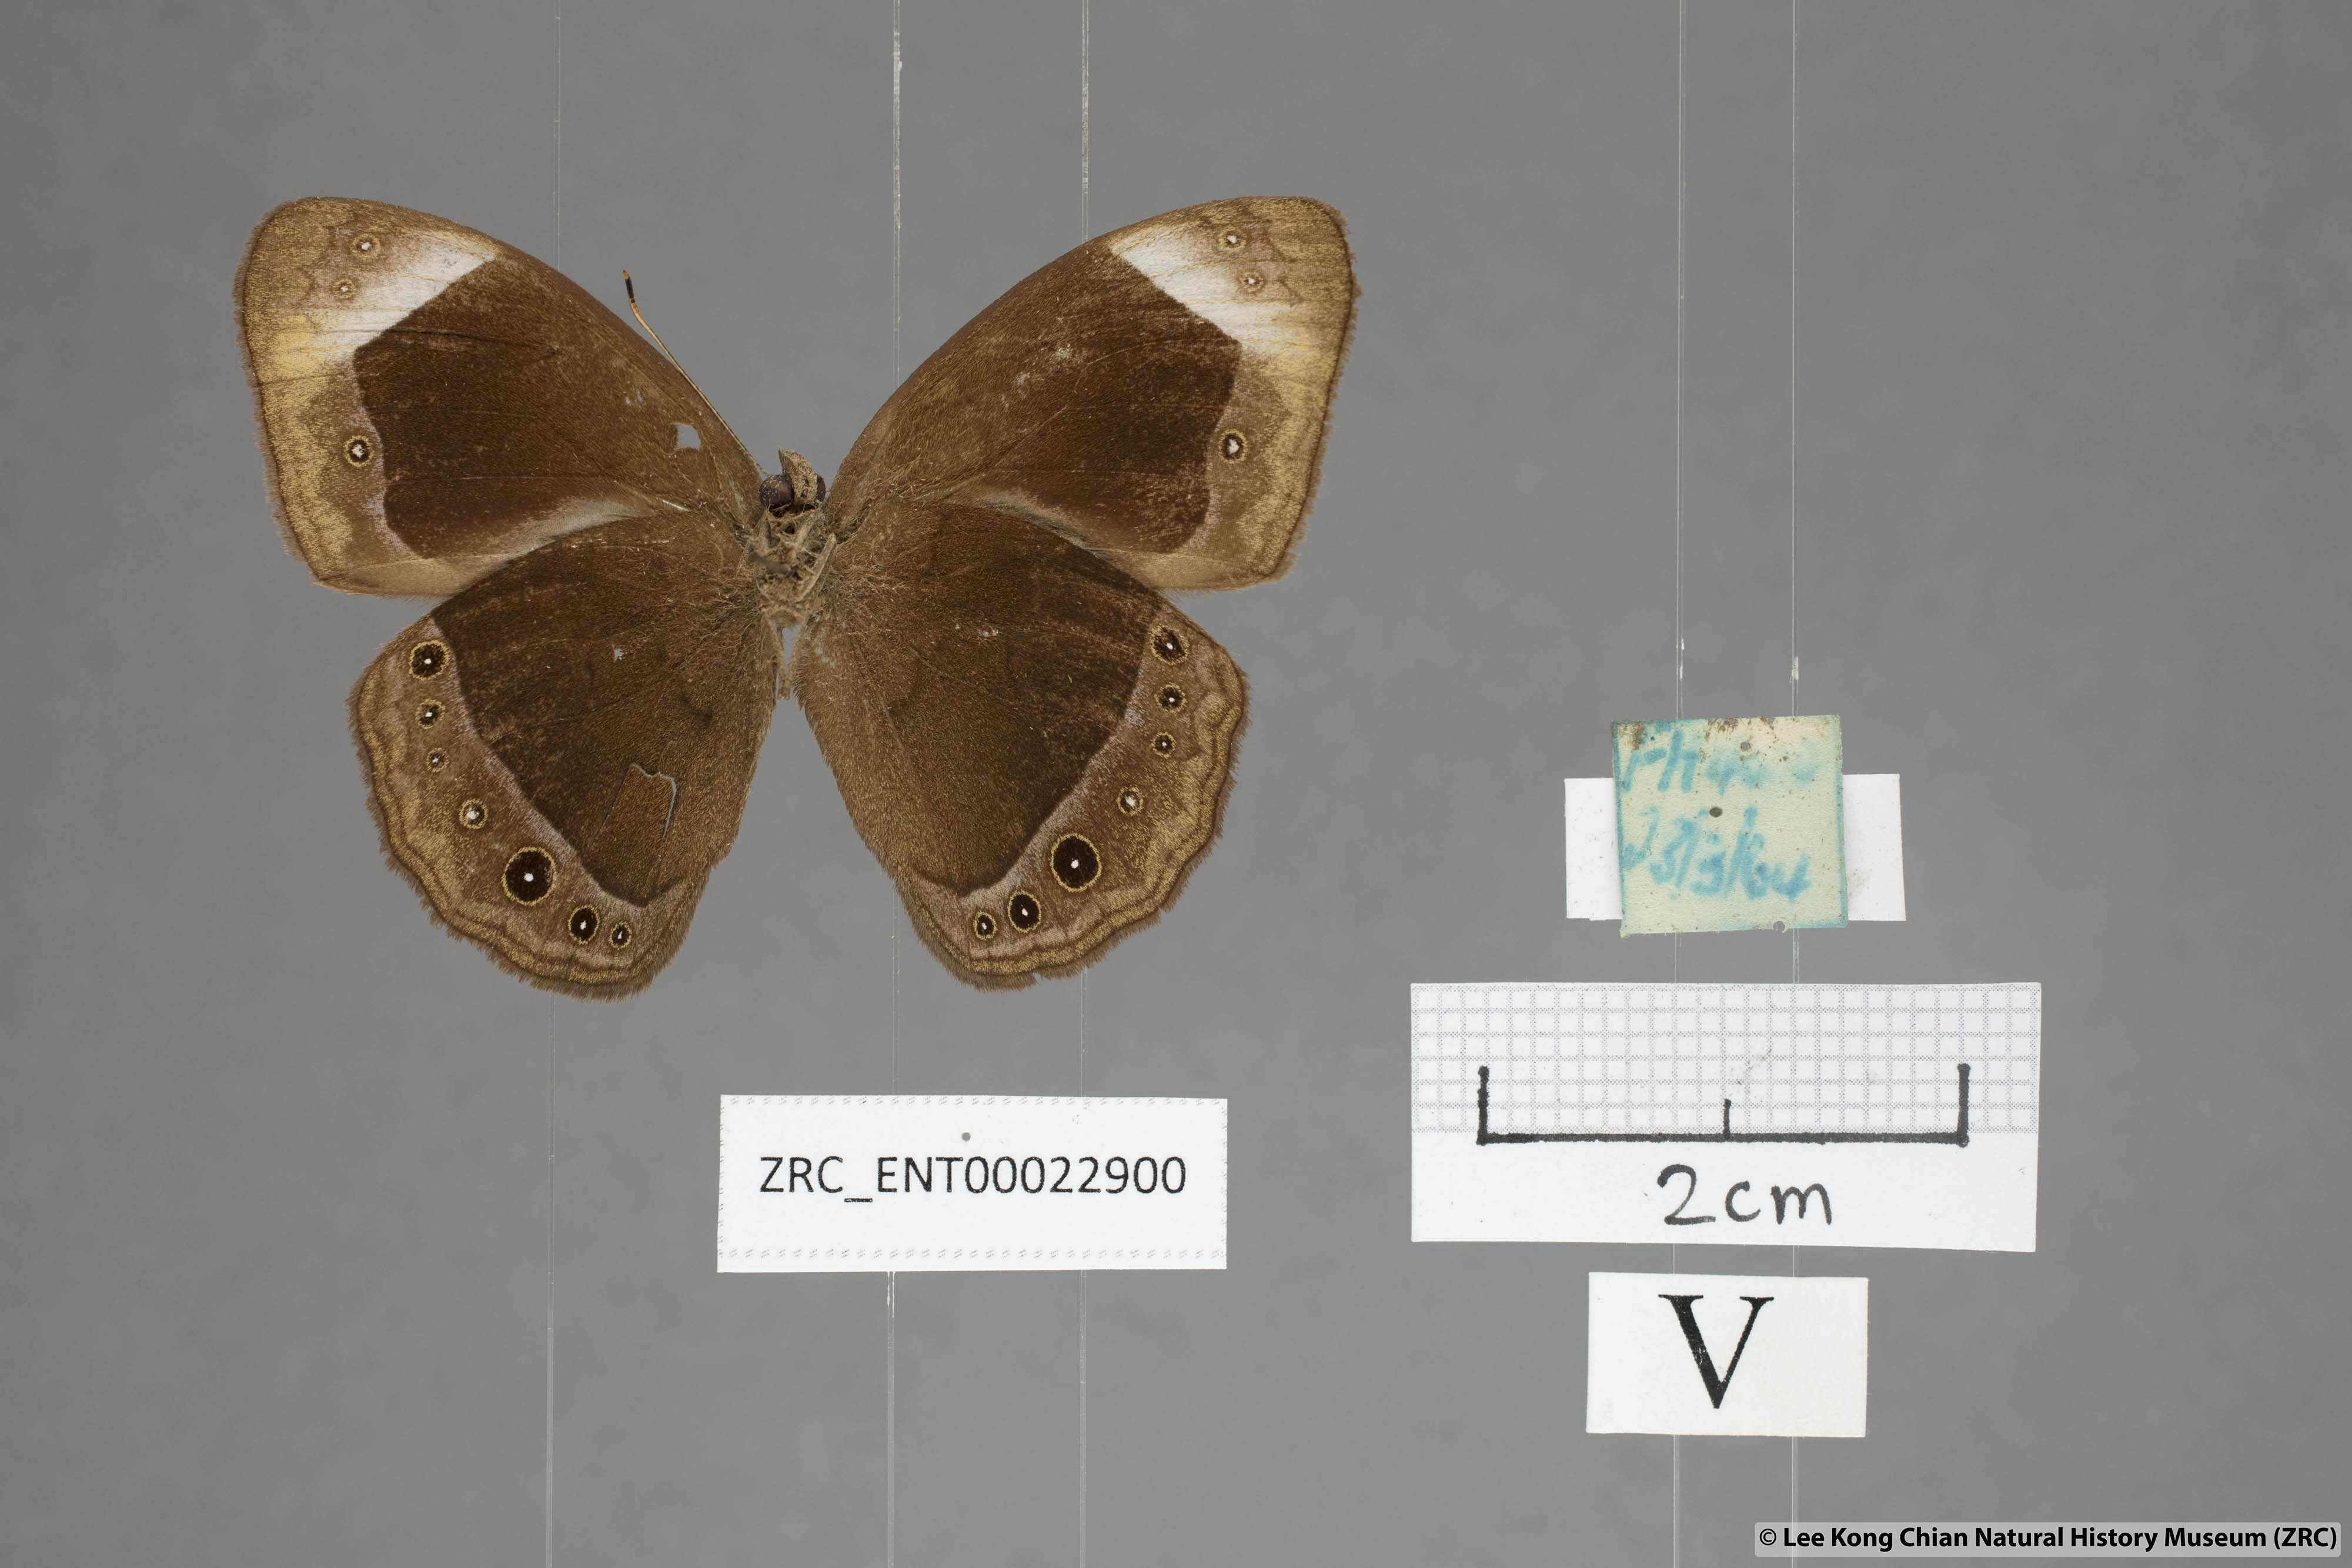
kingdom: Animalia
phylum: Arthropoda
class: Insecta
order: Lepidoptera
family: Nymphalidae
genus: Mycalesis
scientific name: Mycalesis anaxias
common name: White-bar bushbrown
